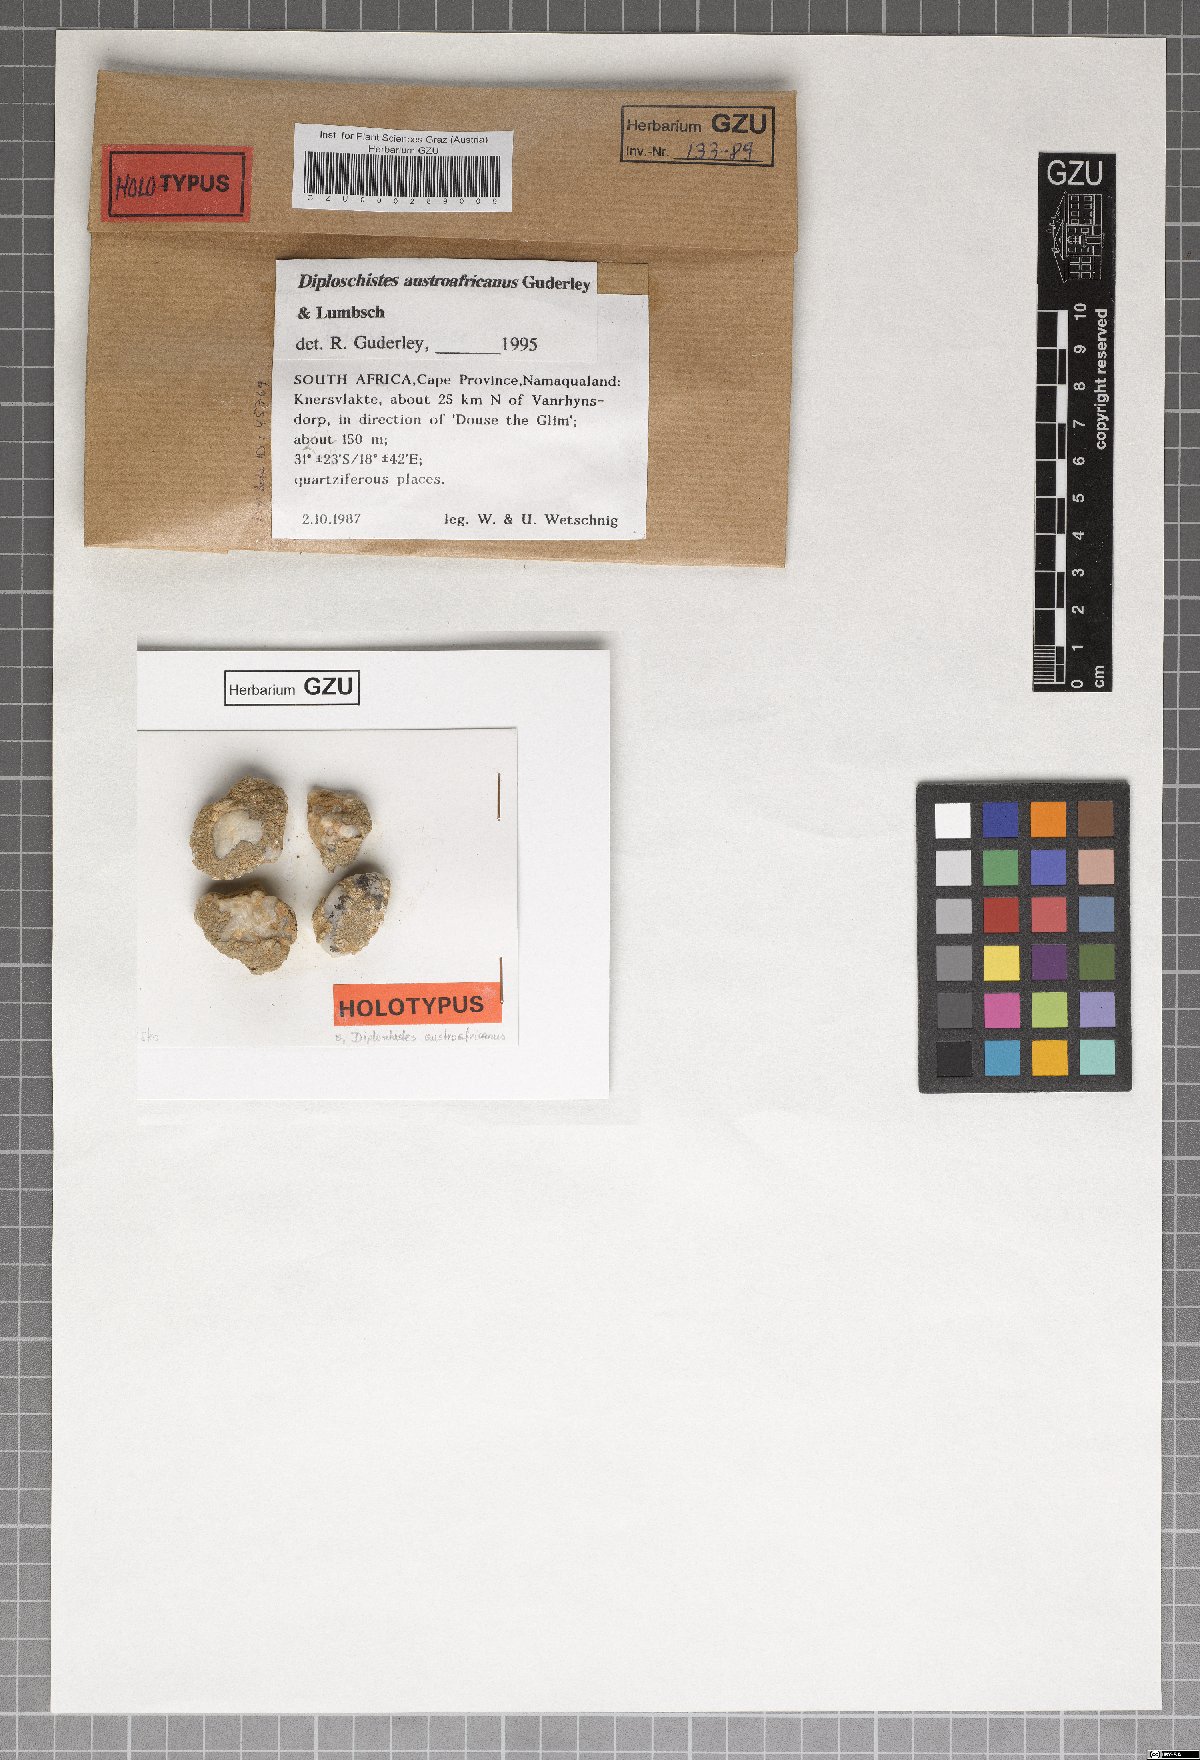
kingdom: Fungi
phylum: Ascomycota
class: Lecanoromycetes
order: Ostropales
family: Graphidaceae
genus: Diploschistes
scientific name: Diploschistes
